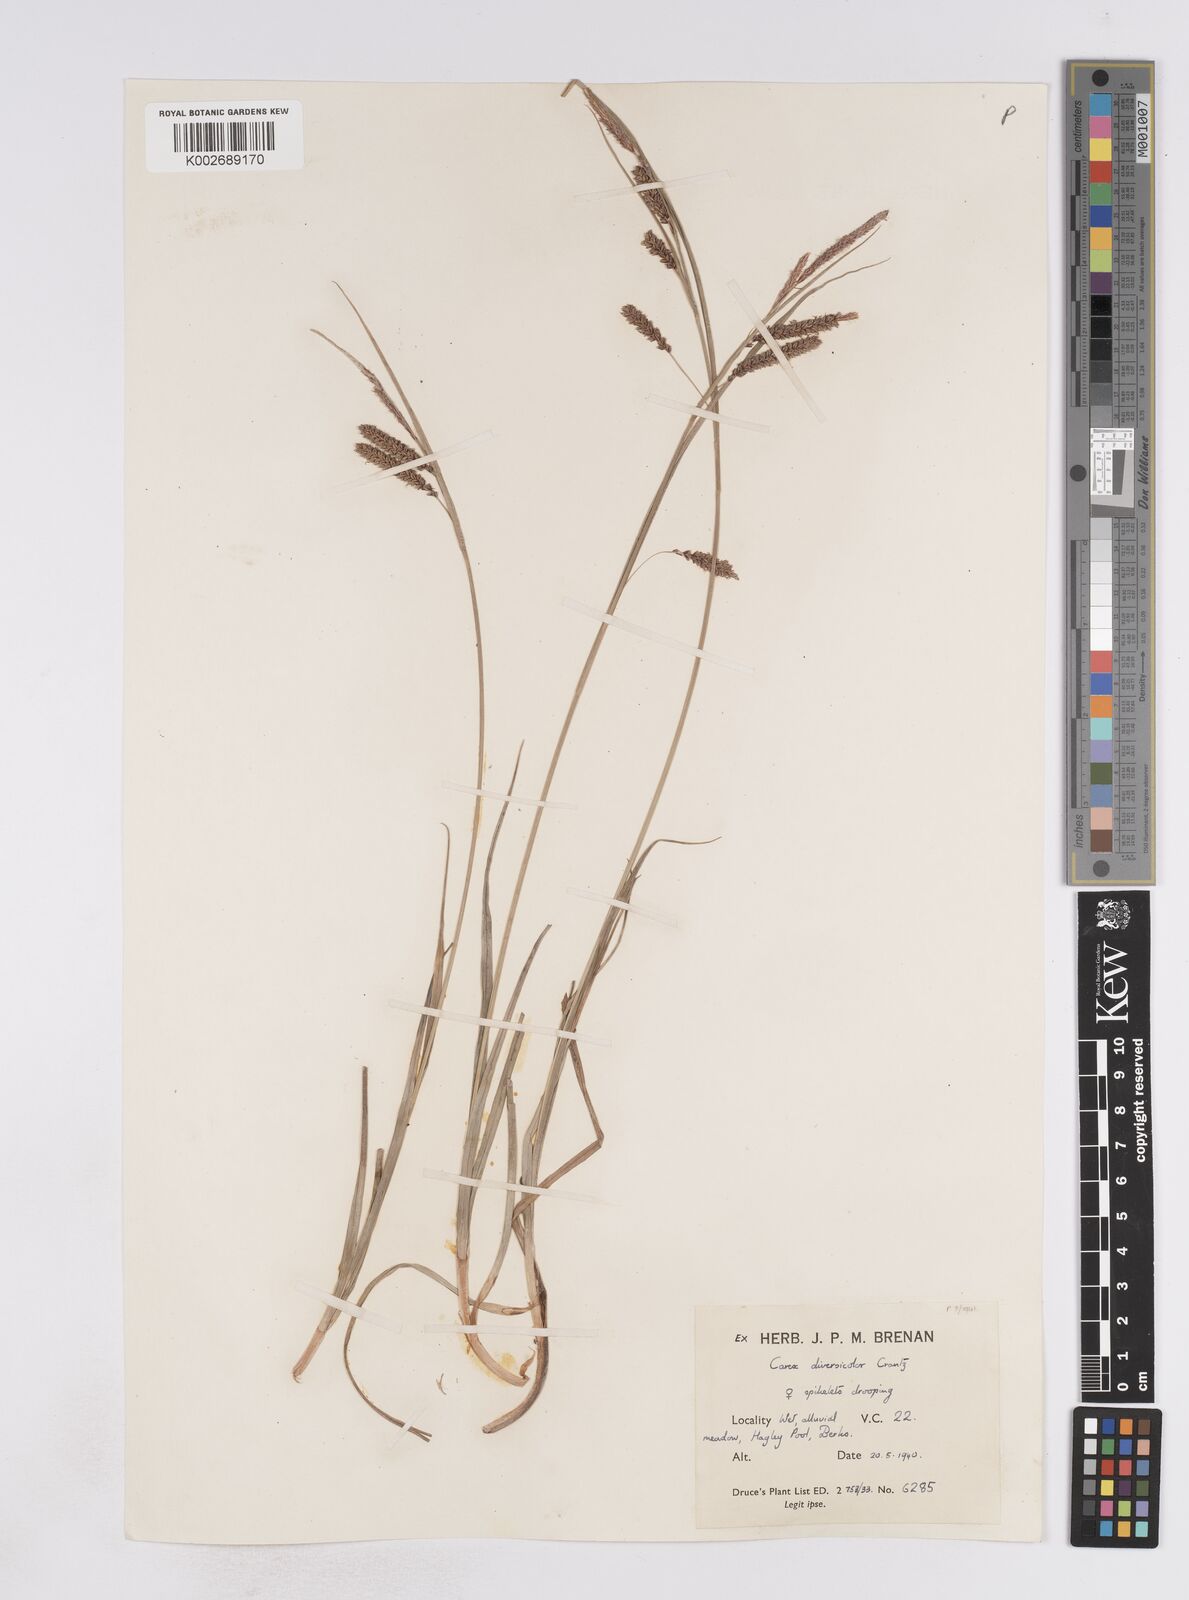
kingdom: Plantae
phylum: Tracheophyta
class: Liliopsida
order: Poales
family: Cyperaceae
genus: Carex
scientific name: Carex flacca
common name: Glaucous sedge
